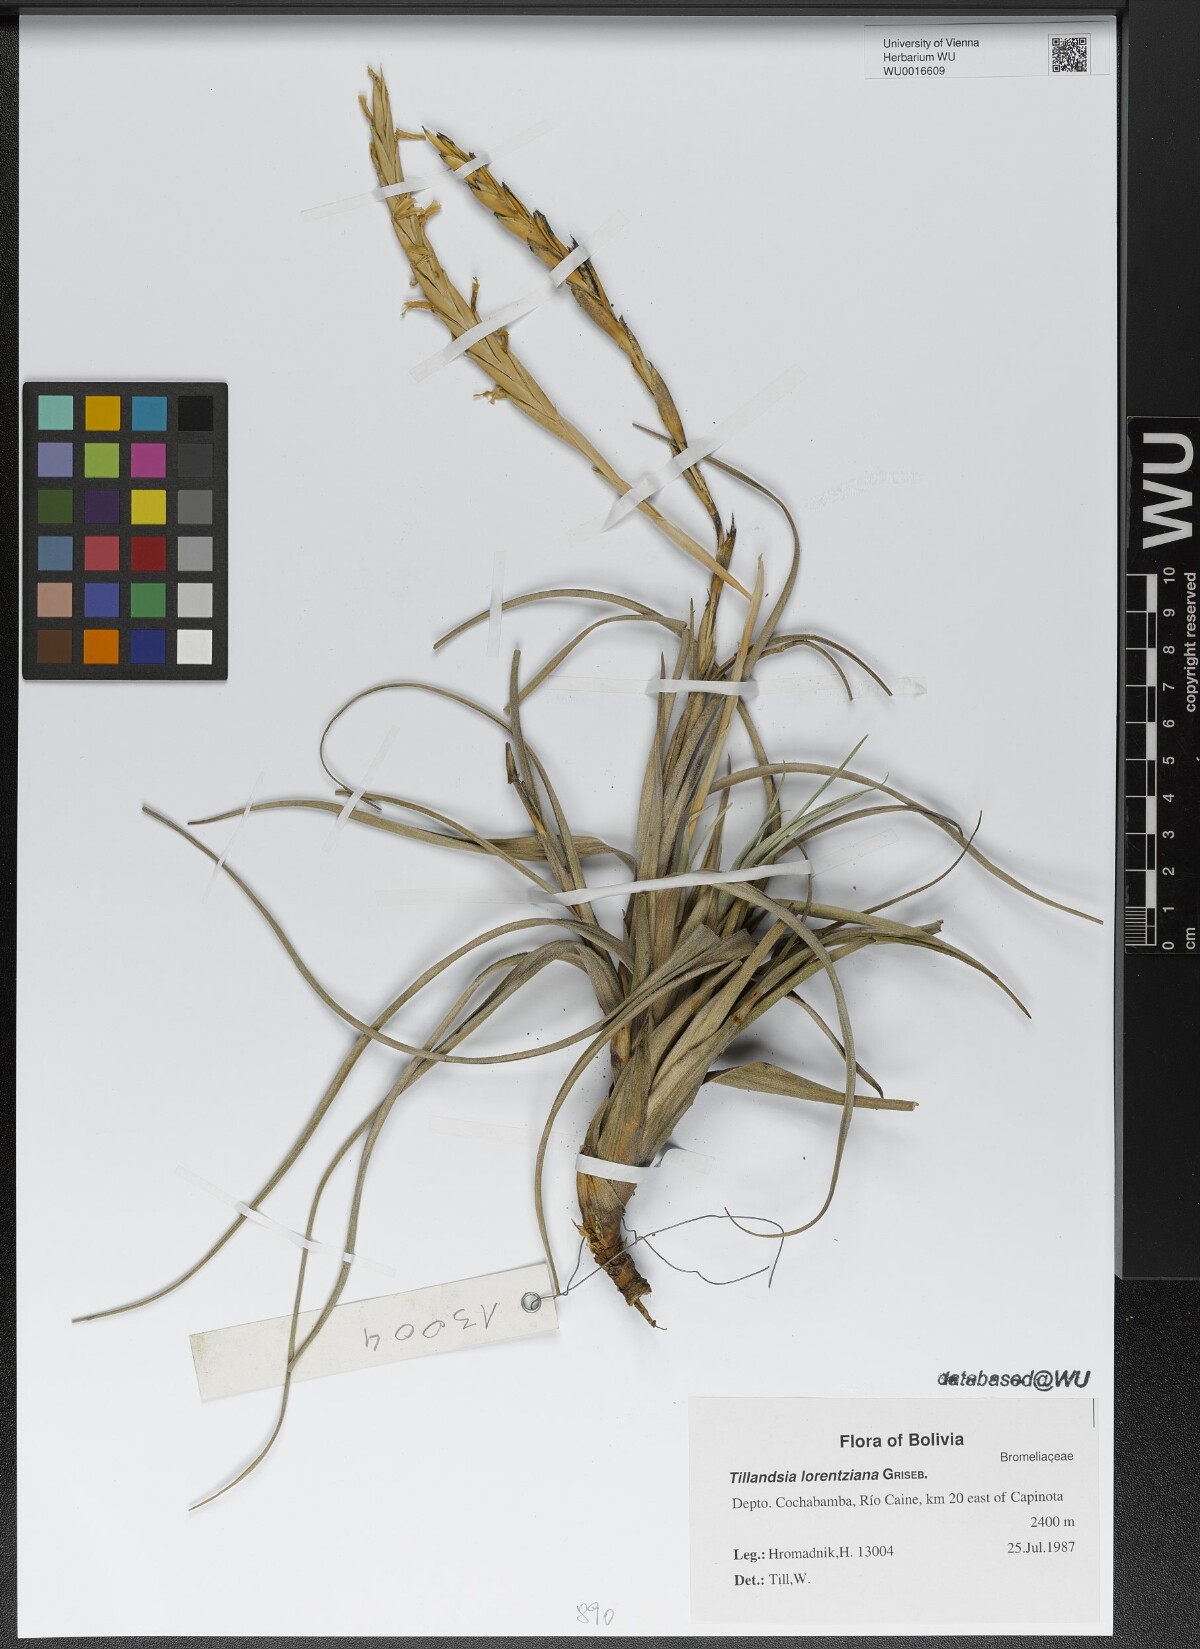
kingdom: Plantae
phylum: Tracheophyta
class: Liliopsida
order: Poales
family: Bromeliaceae
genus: Tillandsia
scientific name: Tillandsia lorentziana
